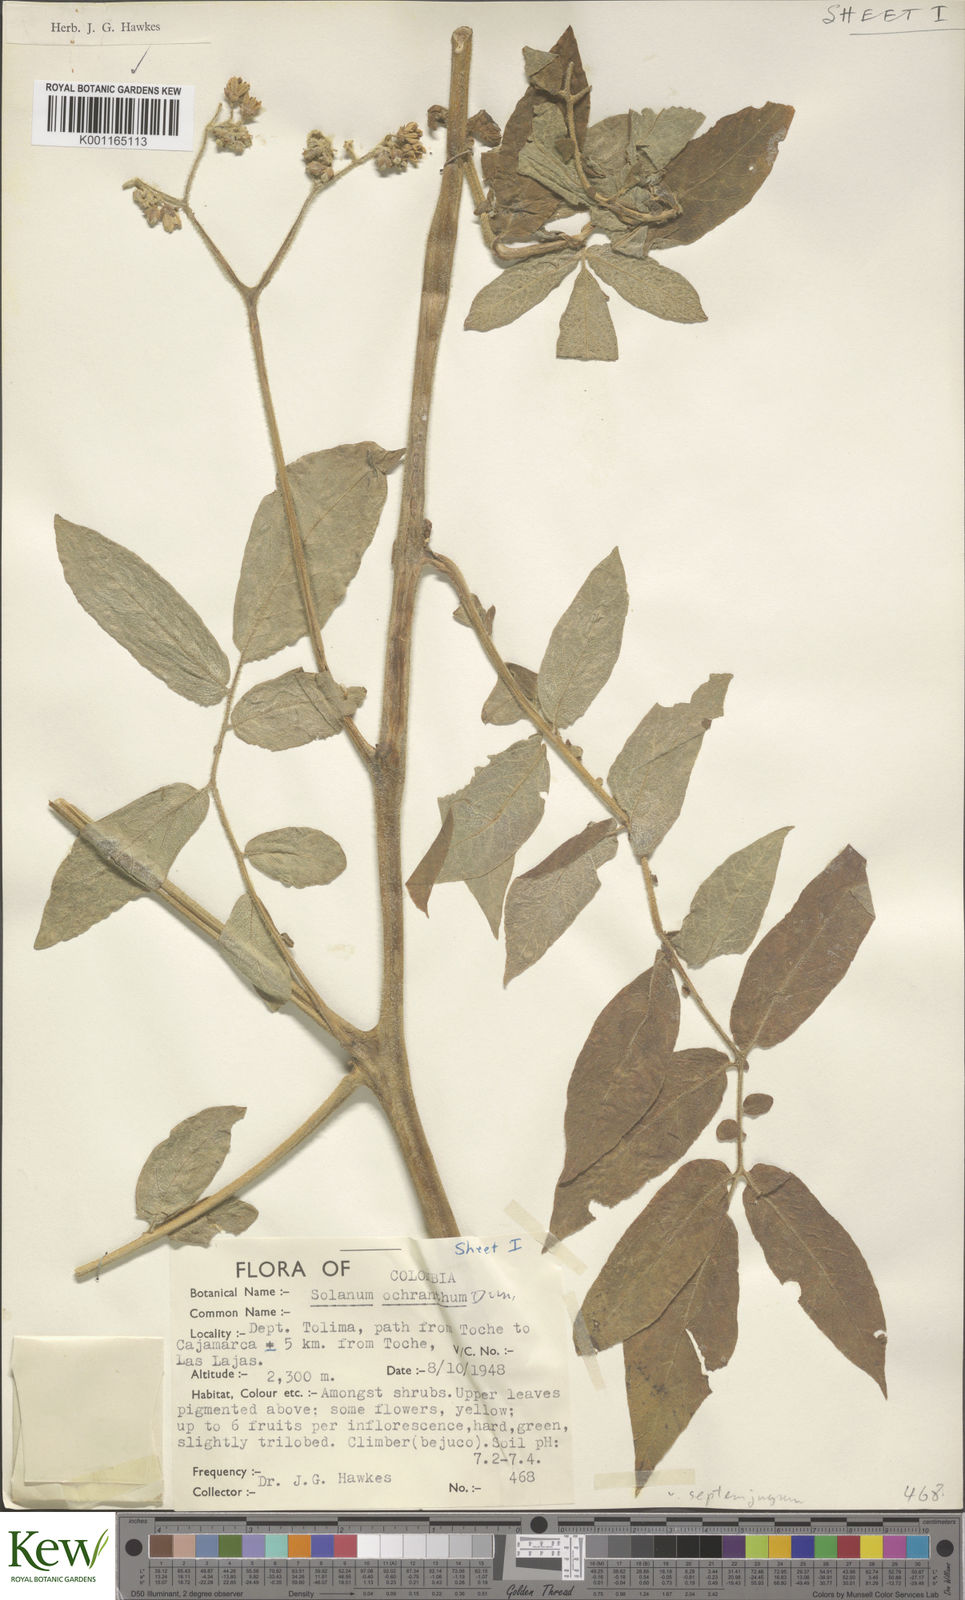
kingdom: Plantae
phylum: Tracheophyta
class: Magnoliopsida
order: Solanales
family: Solanaceae
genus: Solanum
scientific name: Solanum ochranthum
